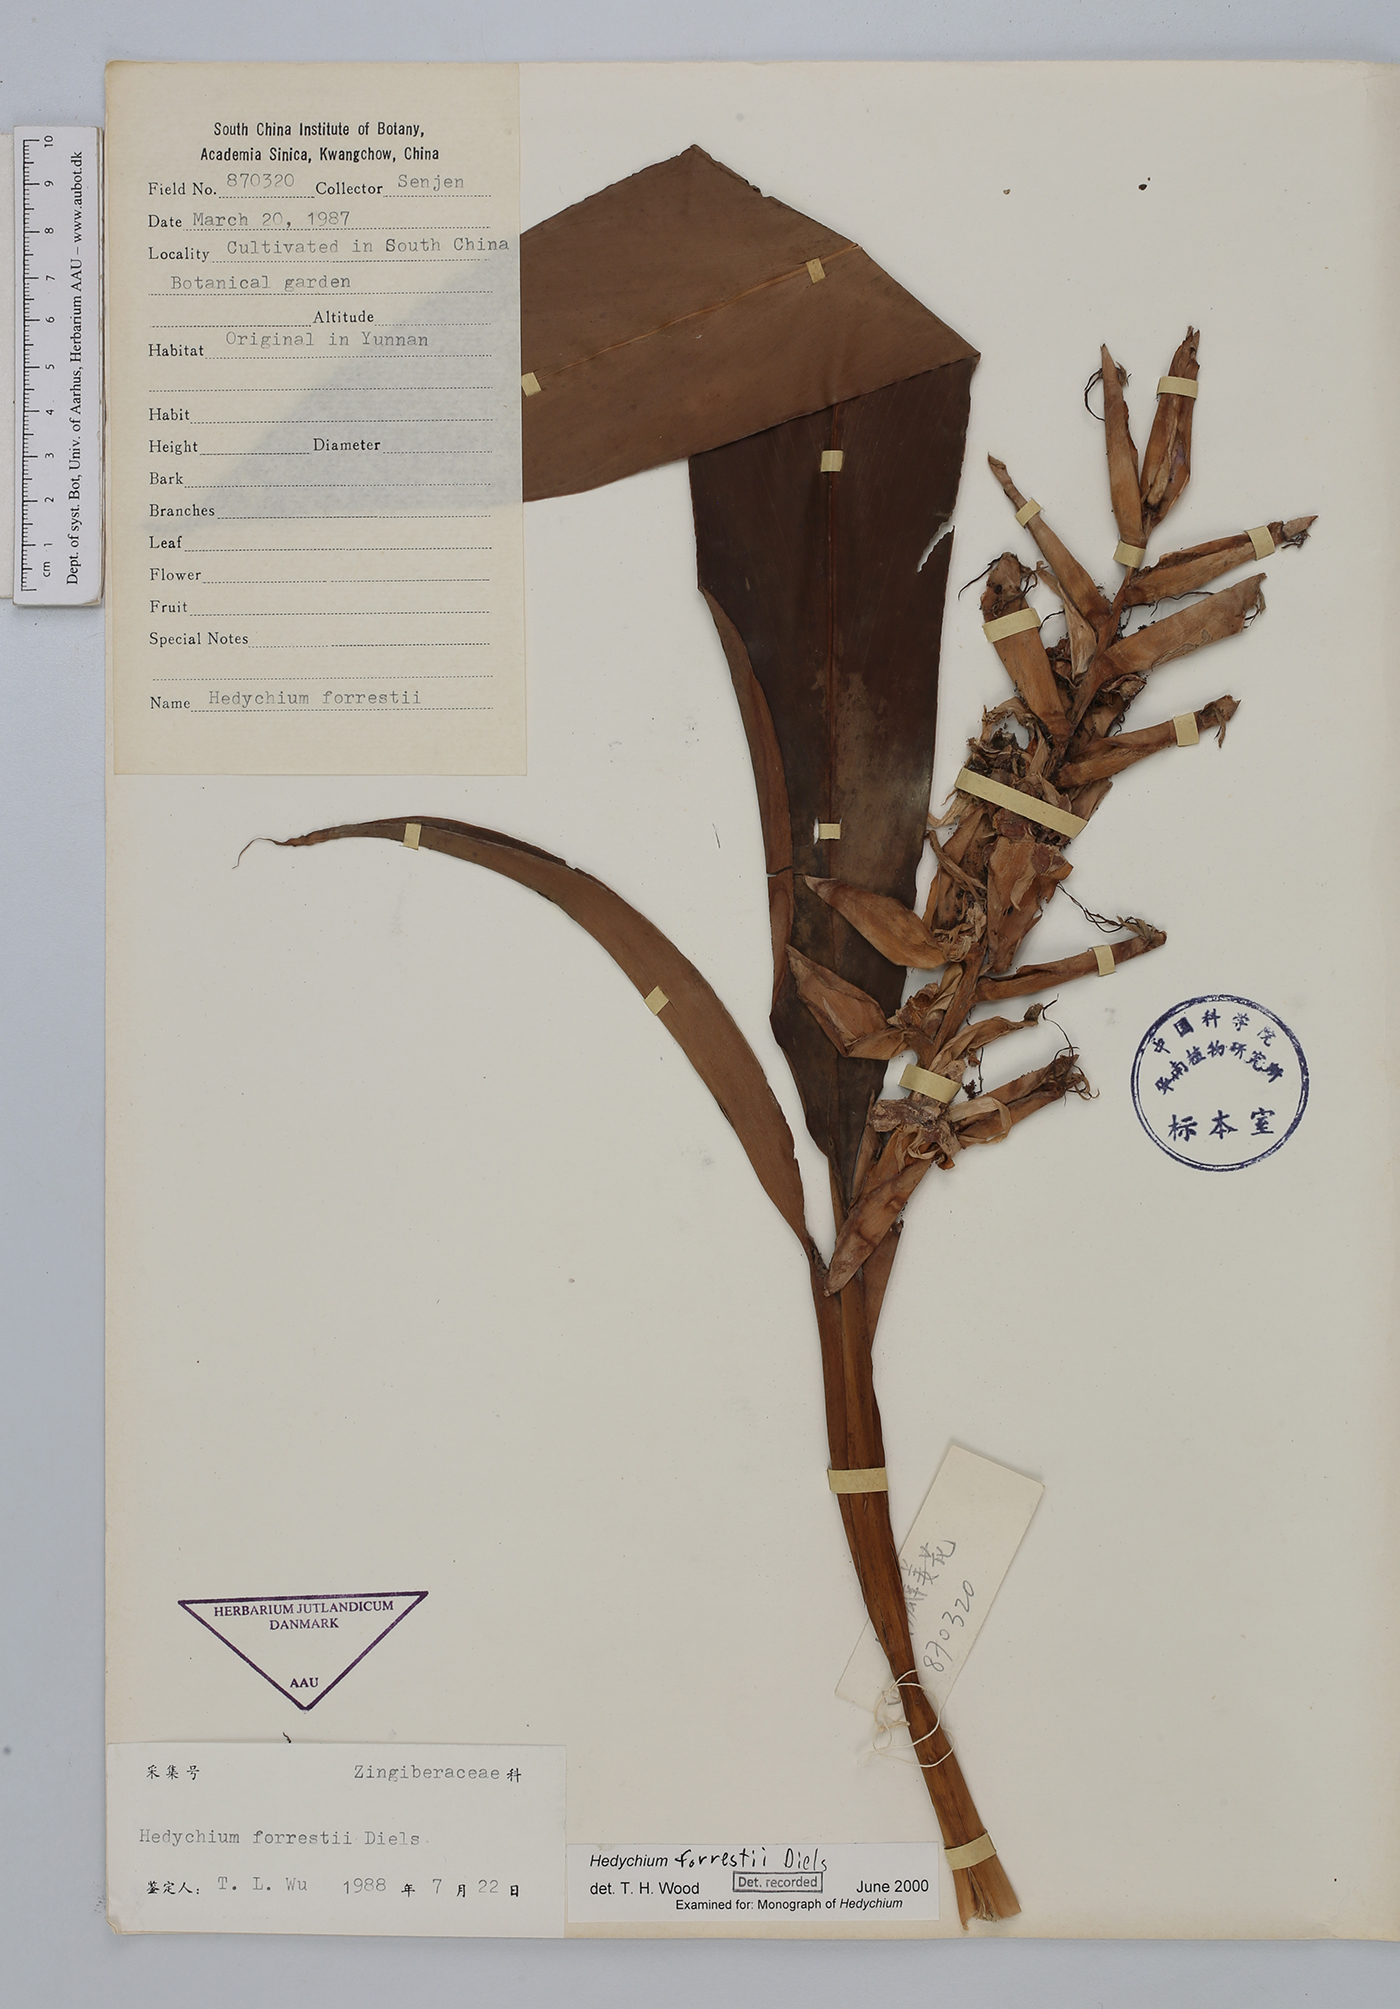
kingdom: Plantae
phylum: Tracheophyta
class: Liliopsida
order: Zingiberales
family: Zingiberaceae
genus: Hedychium
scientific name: Hedychium forrestii
